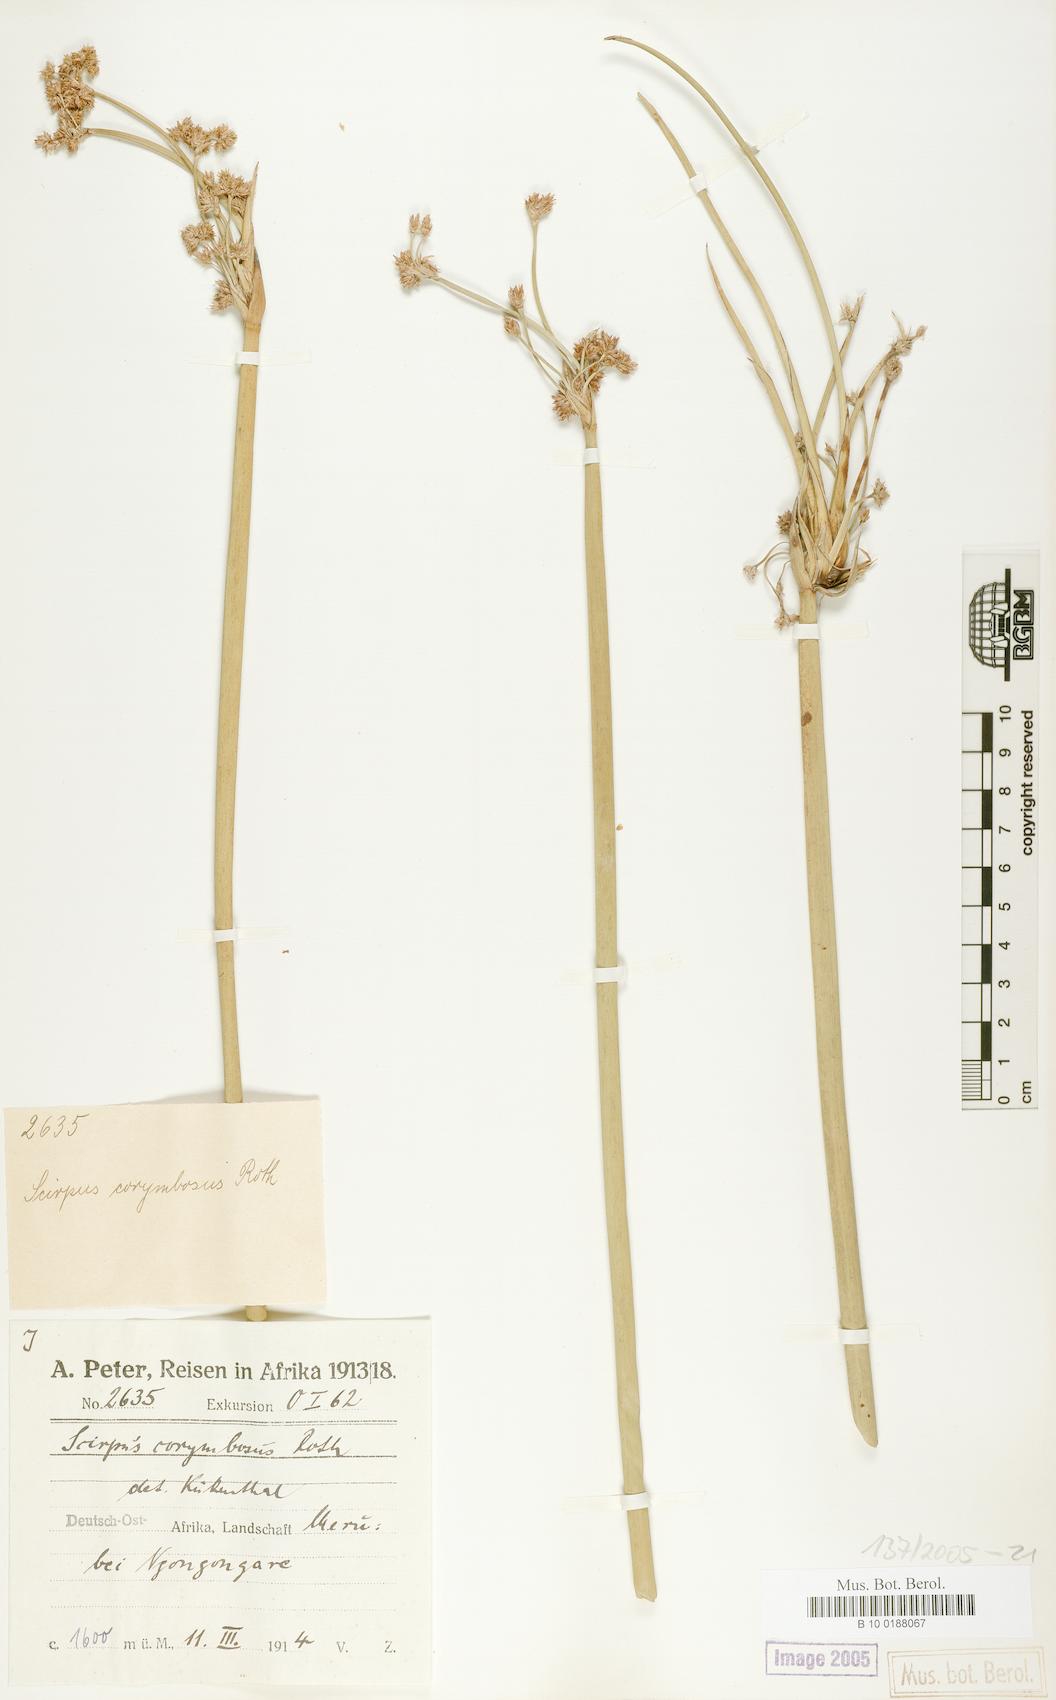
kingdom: Plantae
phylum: Tracheophyta
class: Liliopsida
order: Poales
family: Cyperaceae
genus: Schoenoplectiella
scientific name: Schoenoplectiella brachyceras
